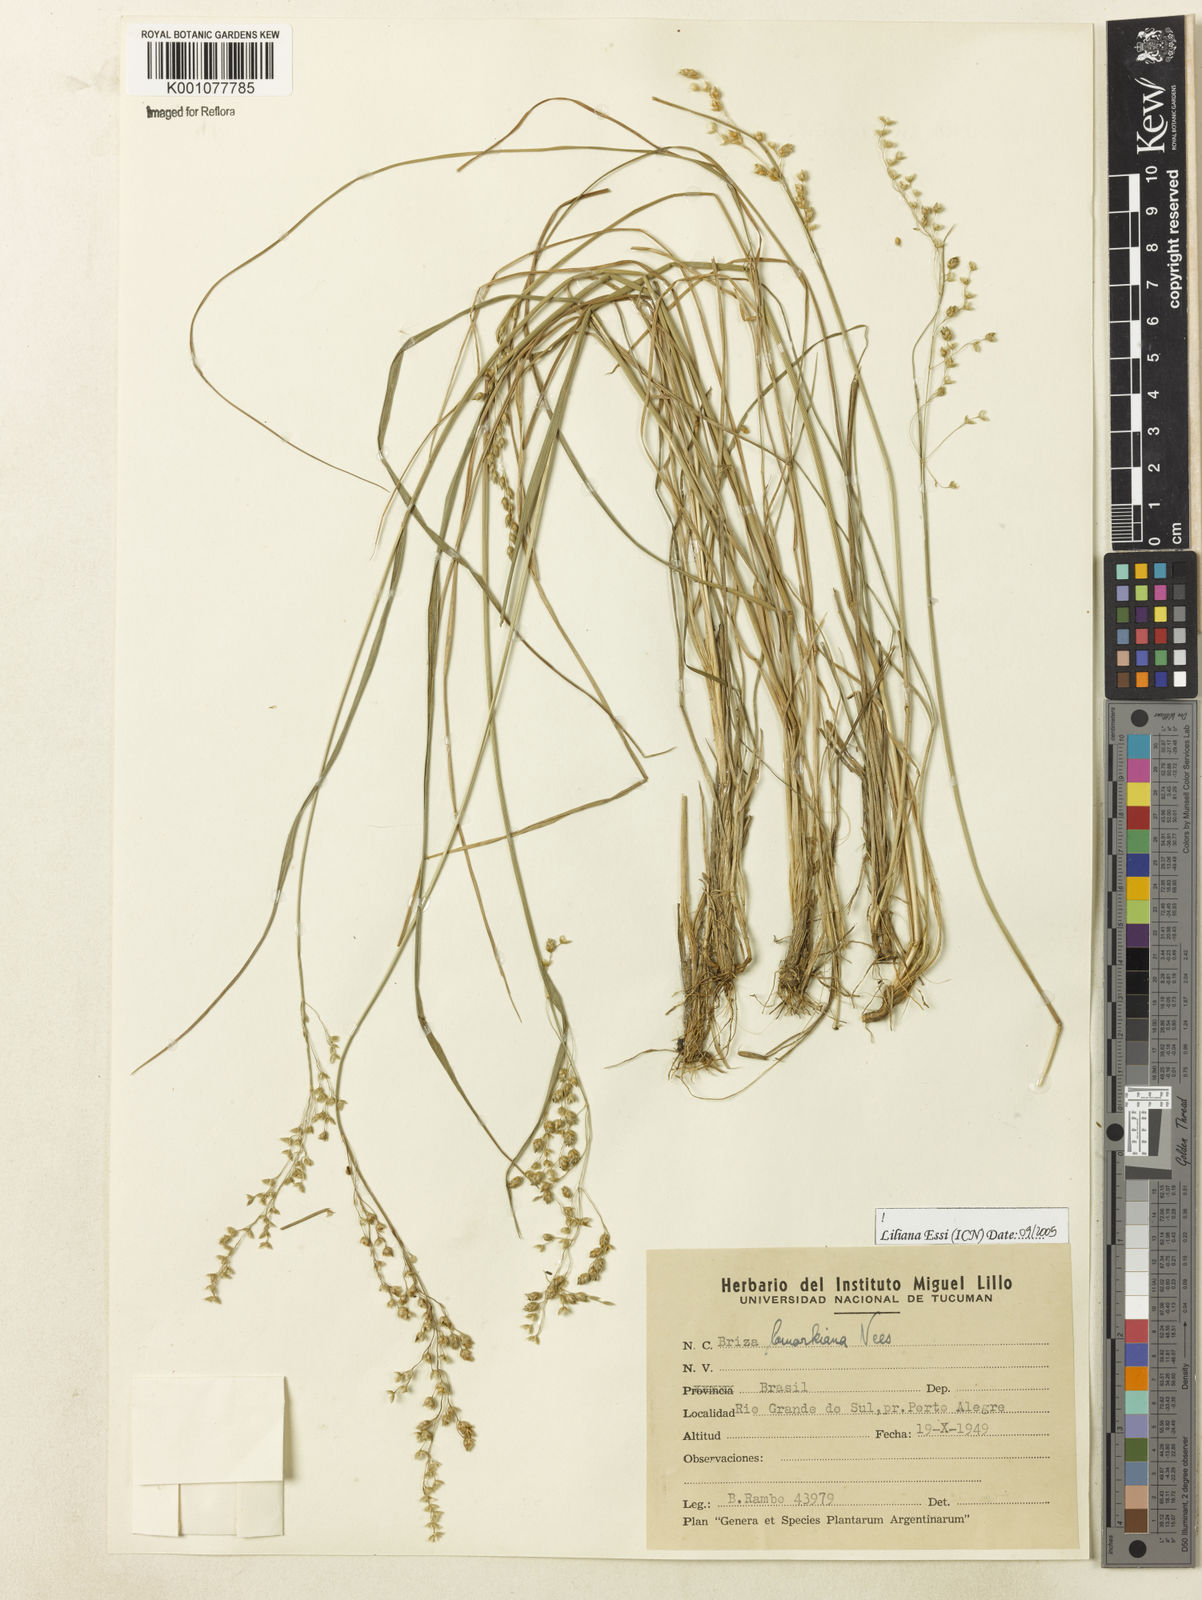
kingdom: Plantae
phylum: Tracheophyta
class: Liliopsida
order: Poales
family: Poaceae
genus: Chascolytrum
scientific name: Chascolytrum lamarckianum
